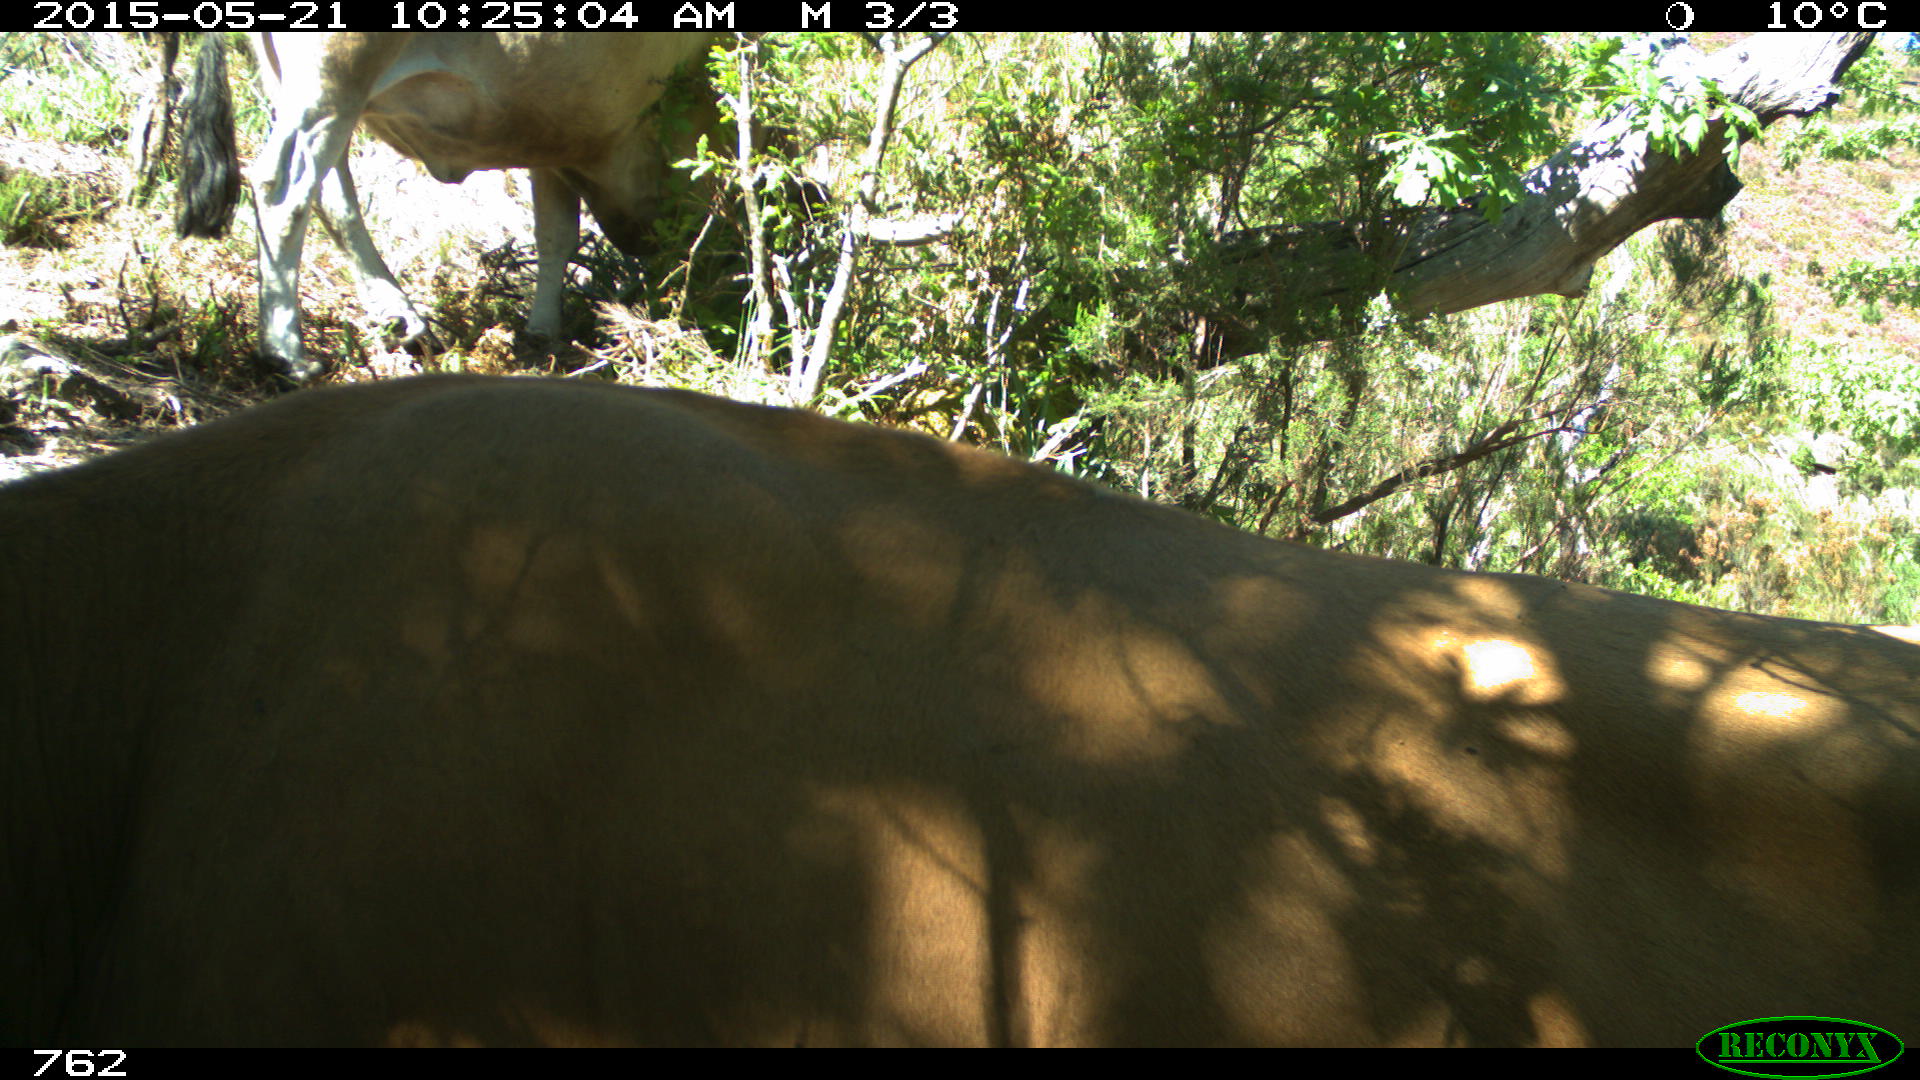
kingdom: Animalia
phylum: Chordata
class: Mammalia
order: Artiodactyla
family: Bovidae
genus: Bos
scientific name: Bos taurus
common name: Domesticated cattle
